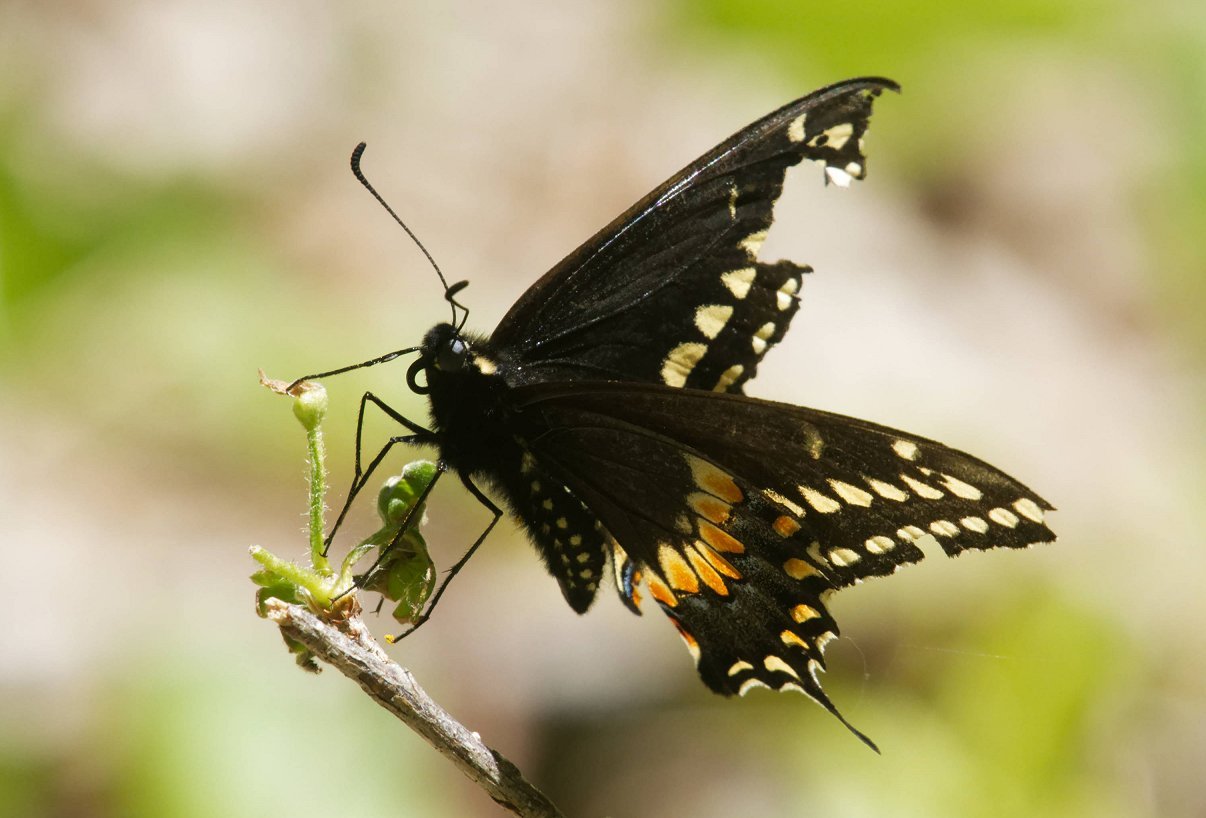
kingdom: Animalia
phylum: Arthropoda
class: Insecta
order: Lepidoptera
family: Papilionidae
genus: Papilio
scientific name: Papilio polyxenes
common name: Black Swallowtail
